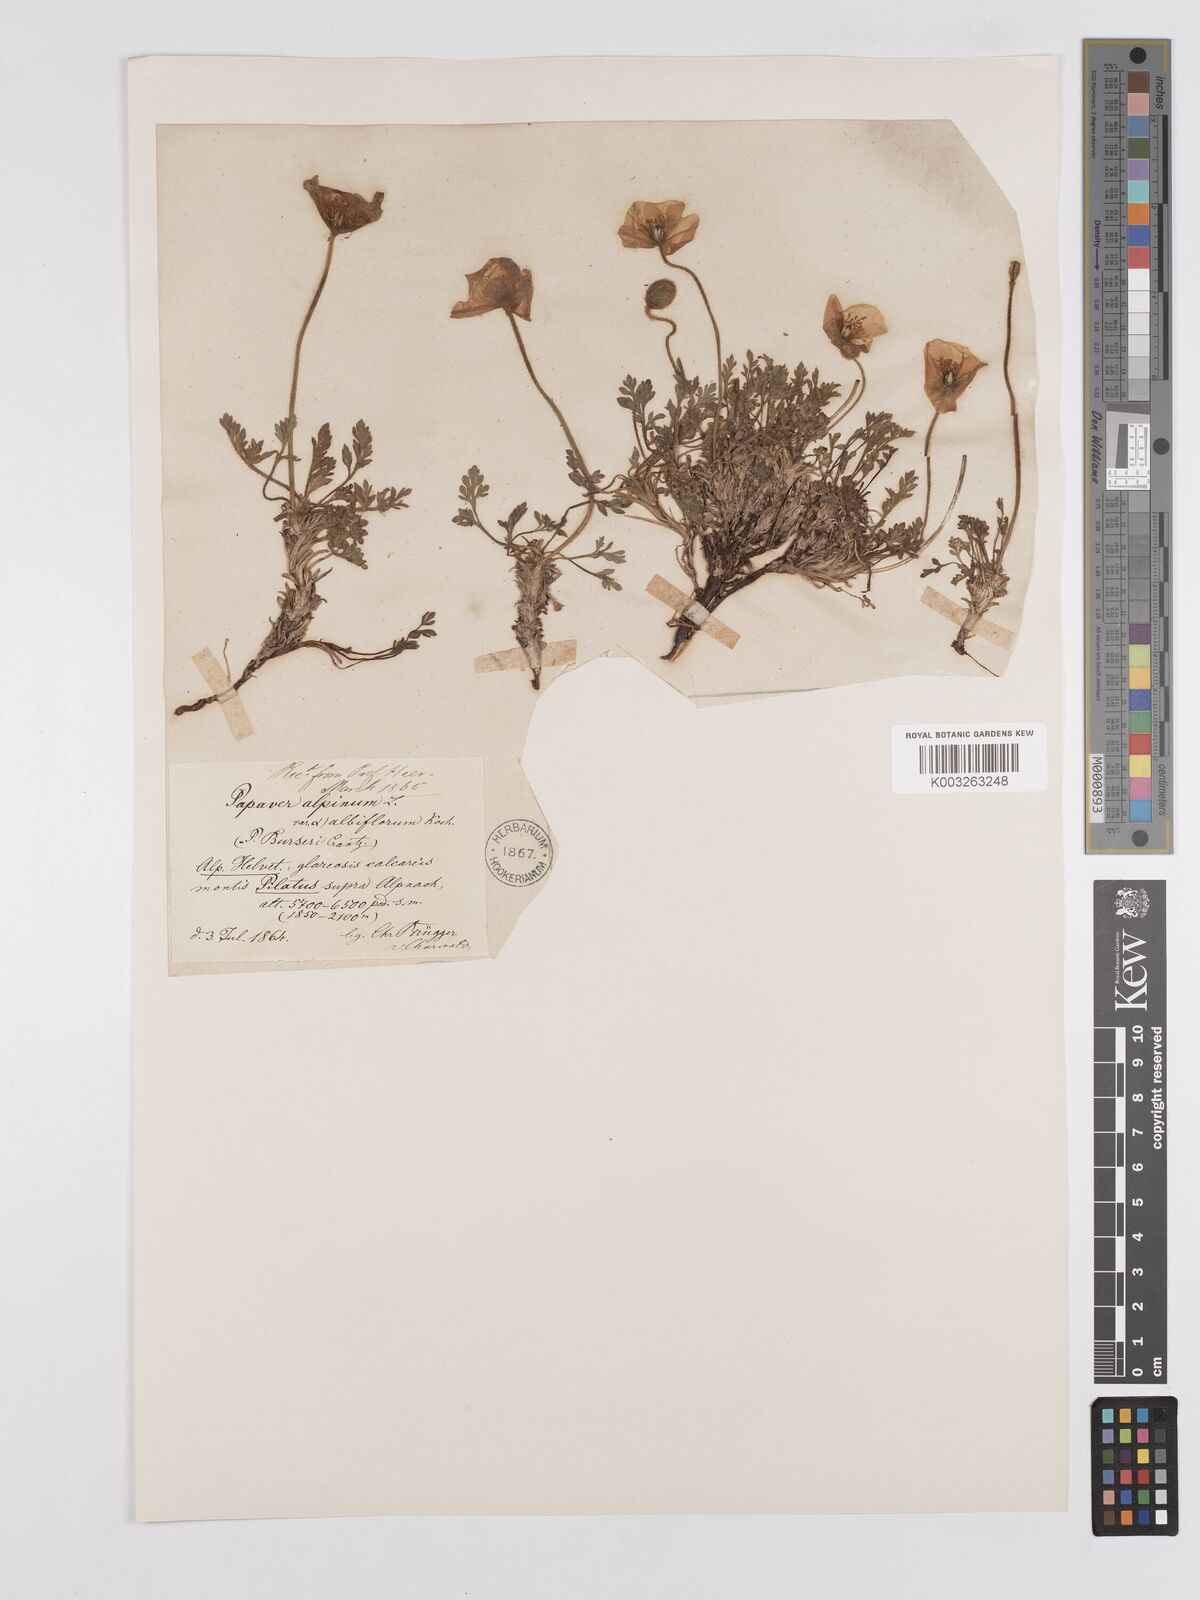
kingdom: Plantae
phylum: Tracheophyta
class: Magnoliopsida
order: Ranunculales
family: Papaveraceae
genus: Papaver
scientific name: Papaver radicatum
